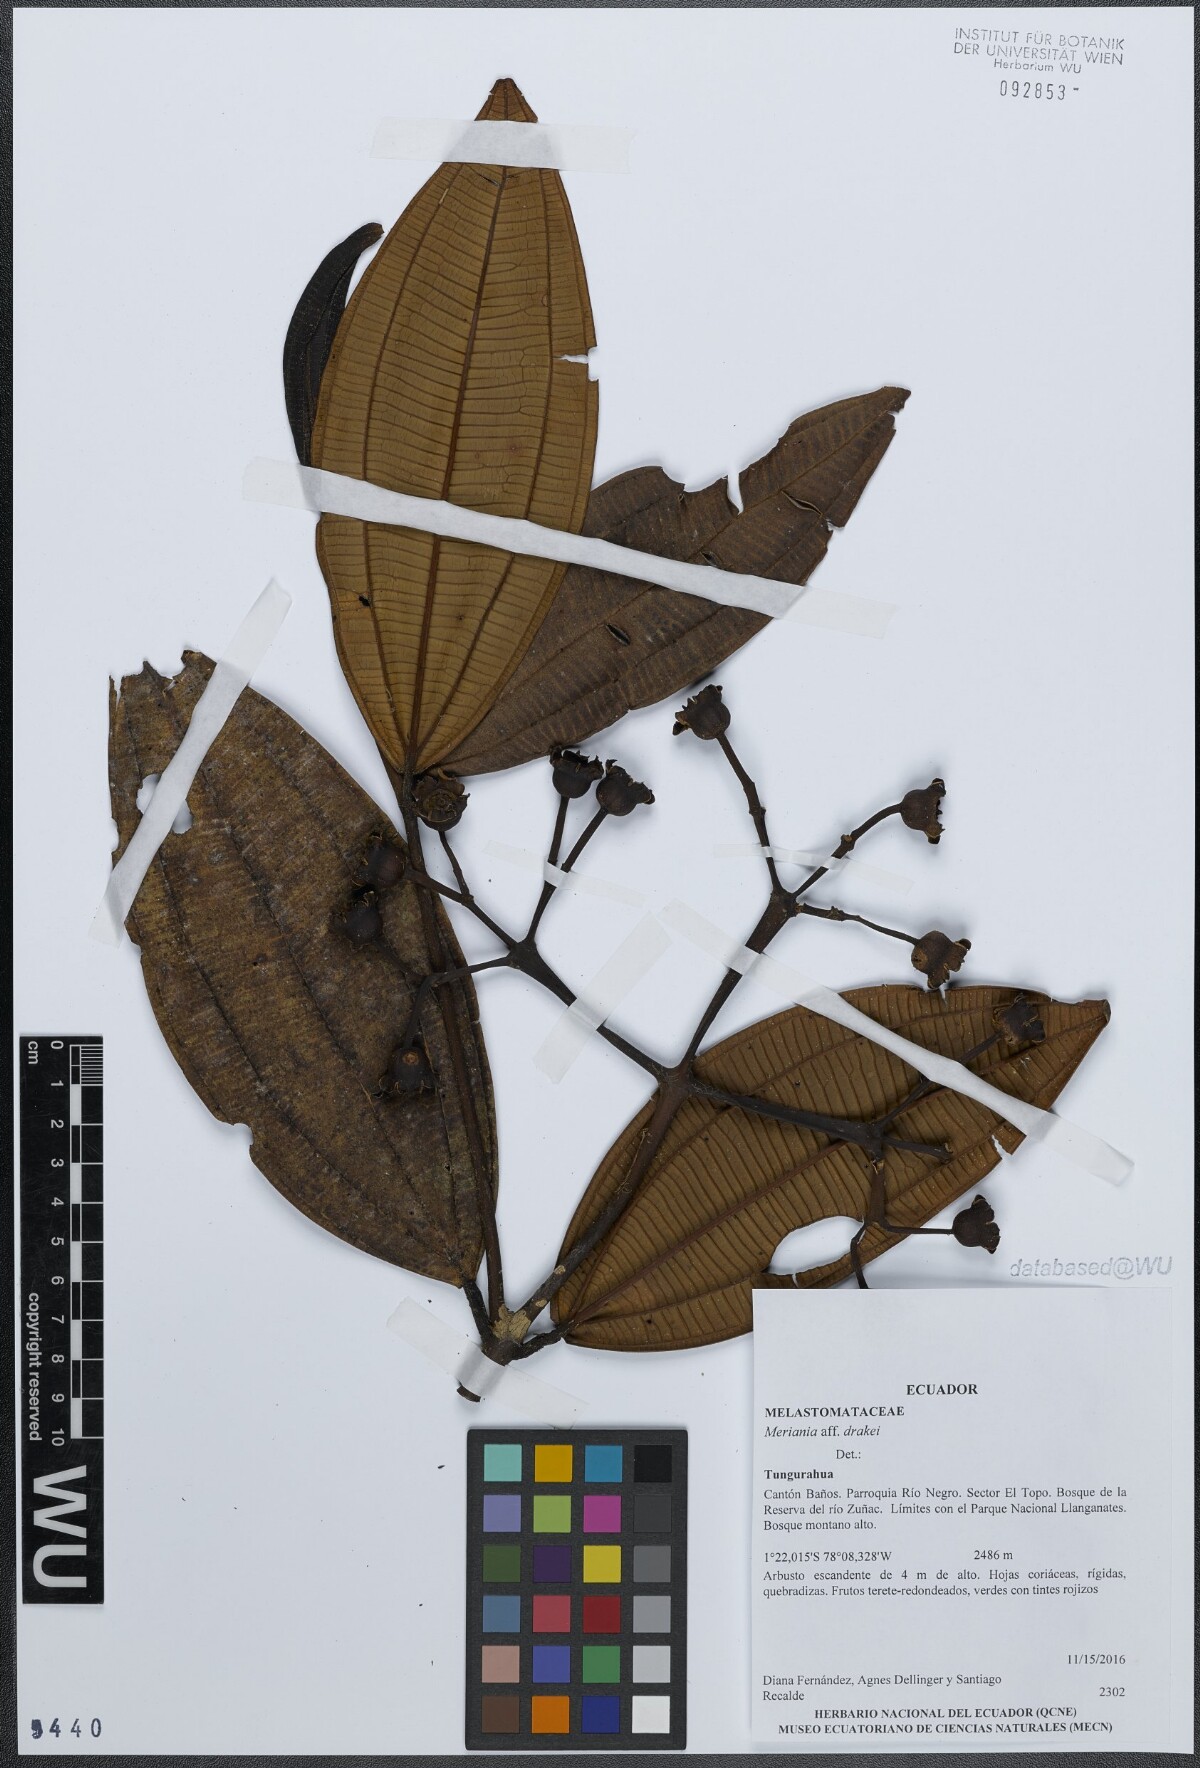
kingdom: Plantae
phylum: Tracheophyta
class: Magnoliopsida
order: Myrtales
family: Melastomataceae
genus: Meriania
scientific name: Meriania drakei
